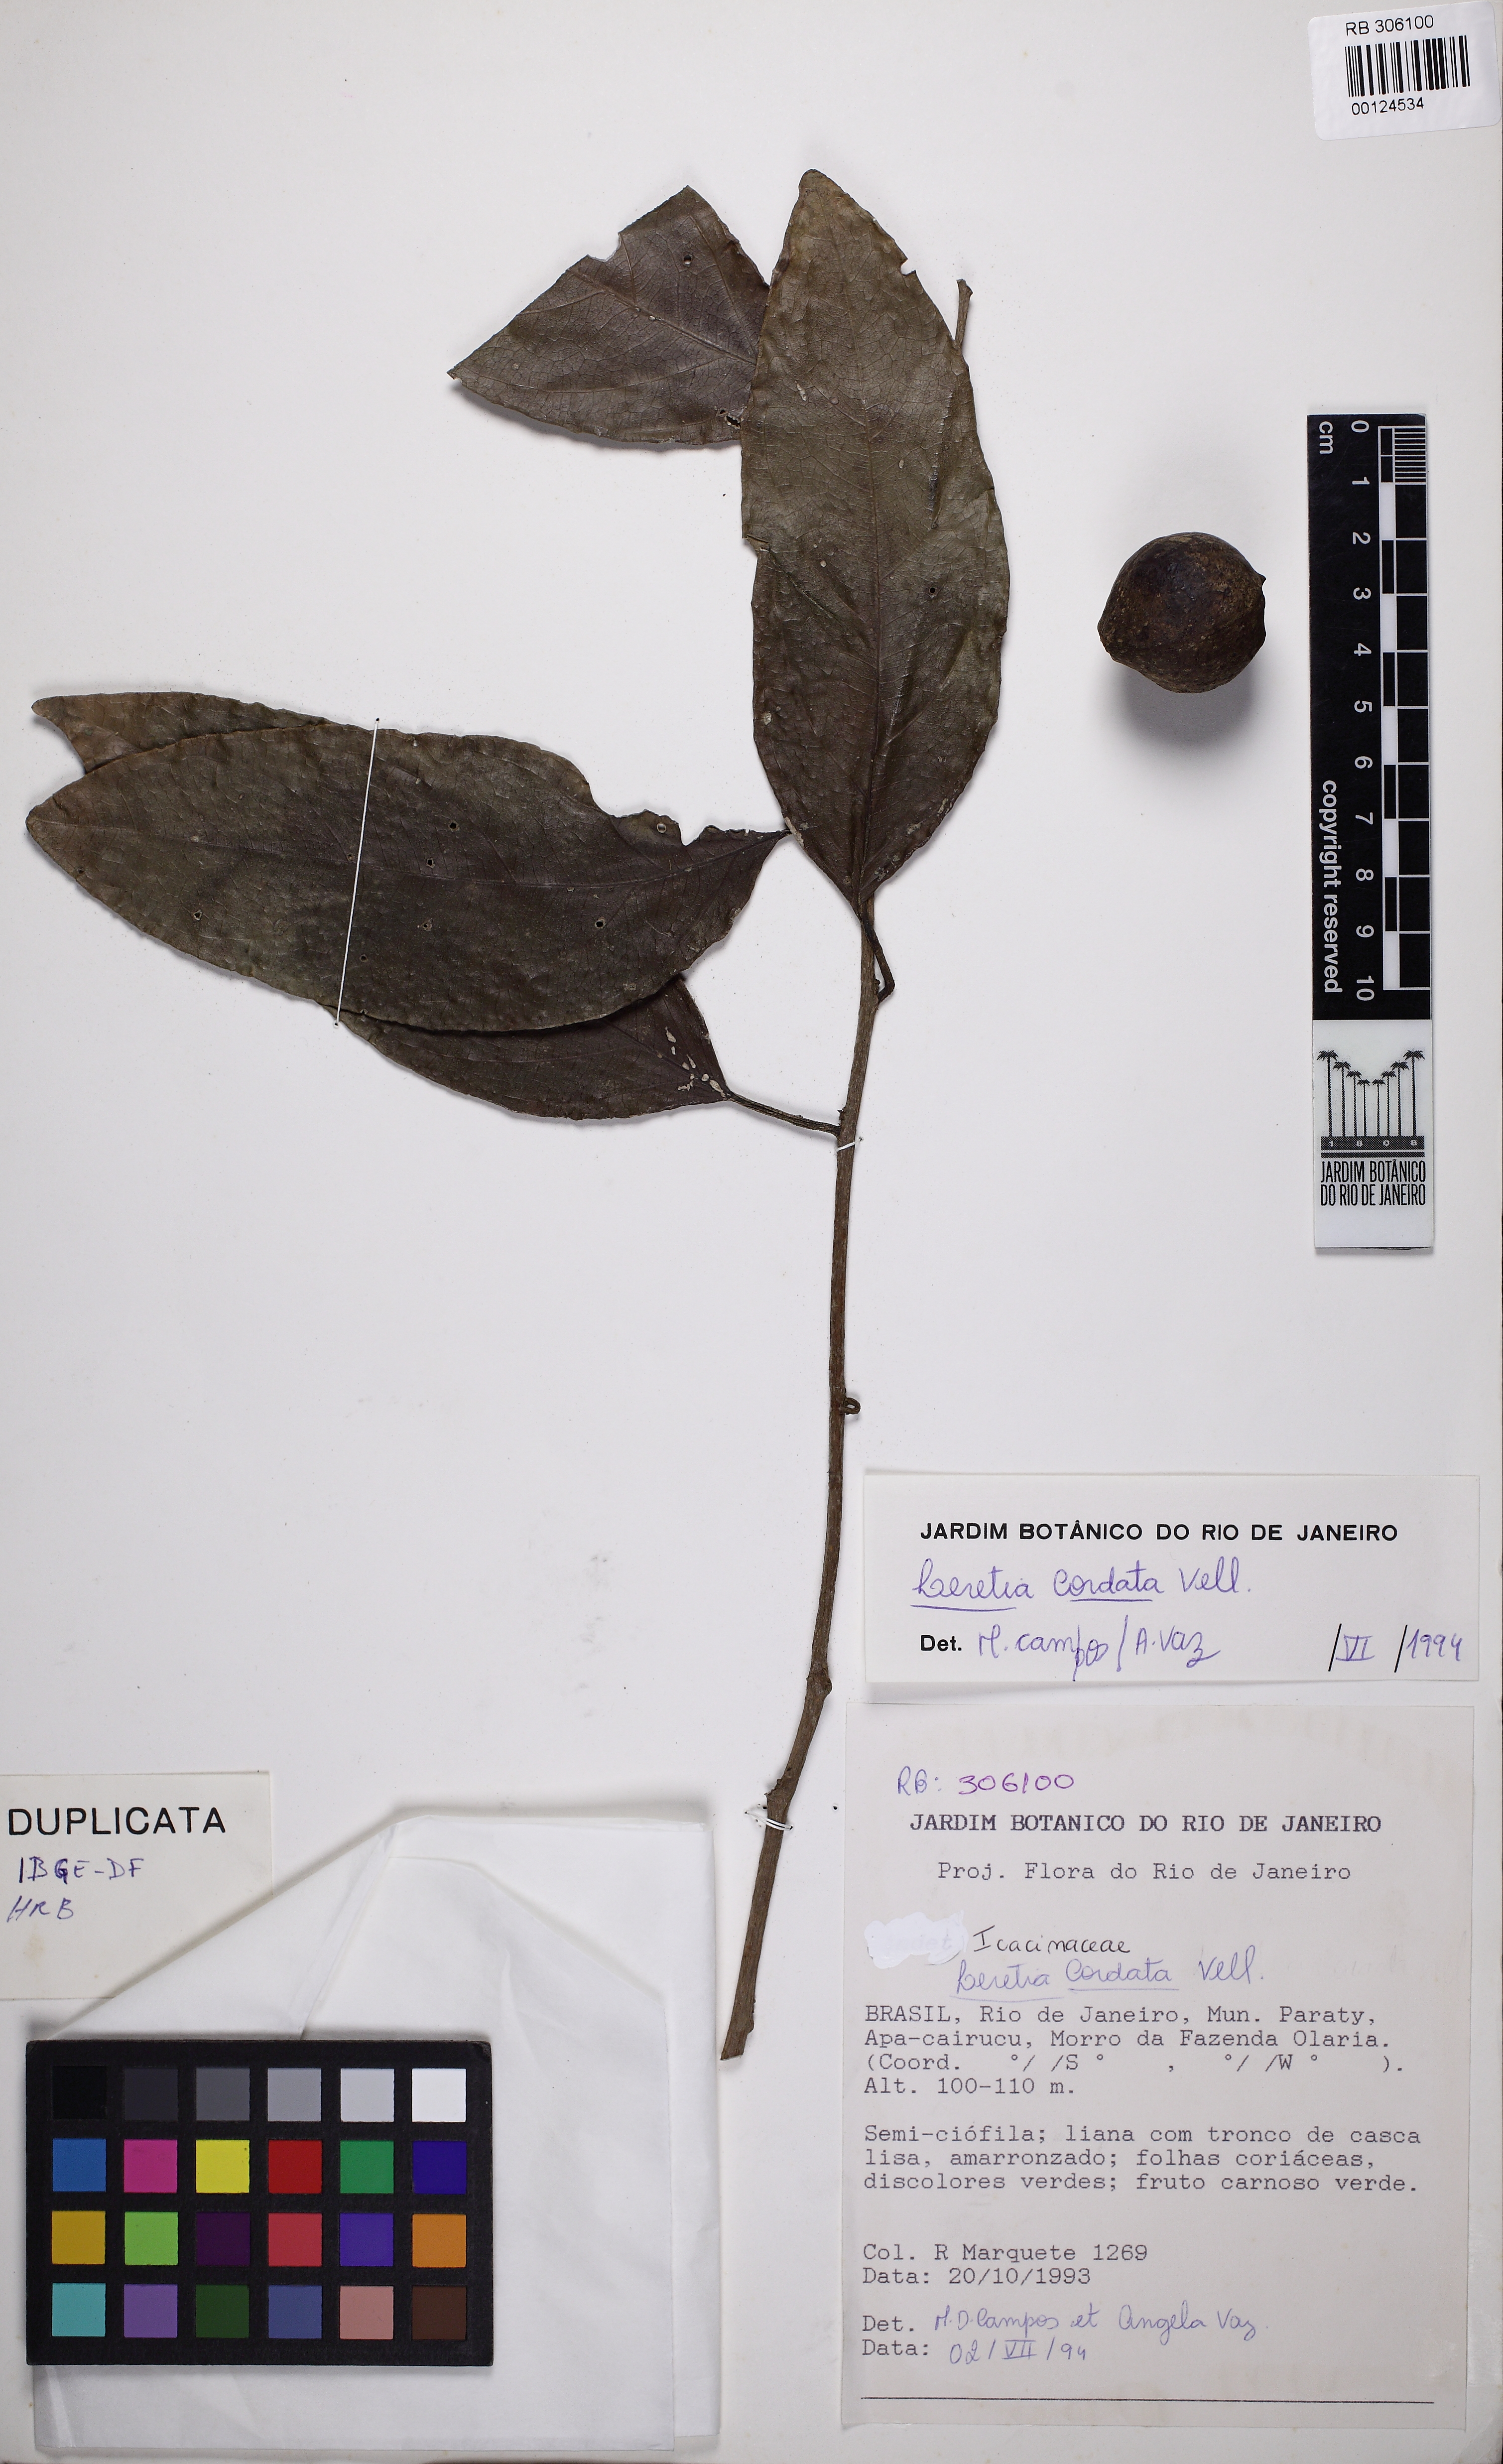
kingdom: Plantae
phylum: Tracheophyta
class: Magnoliopsida
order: Icacinales
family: Icacinaceae
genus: Leretia
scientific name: Leretia cordata
